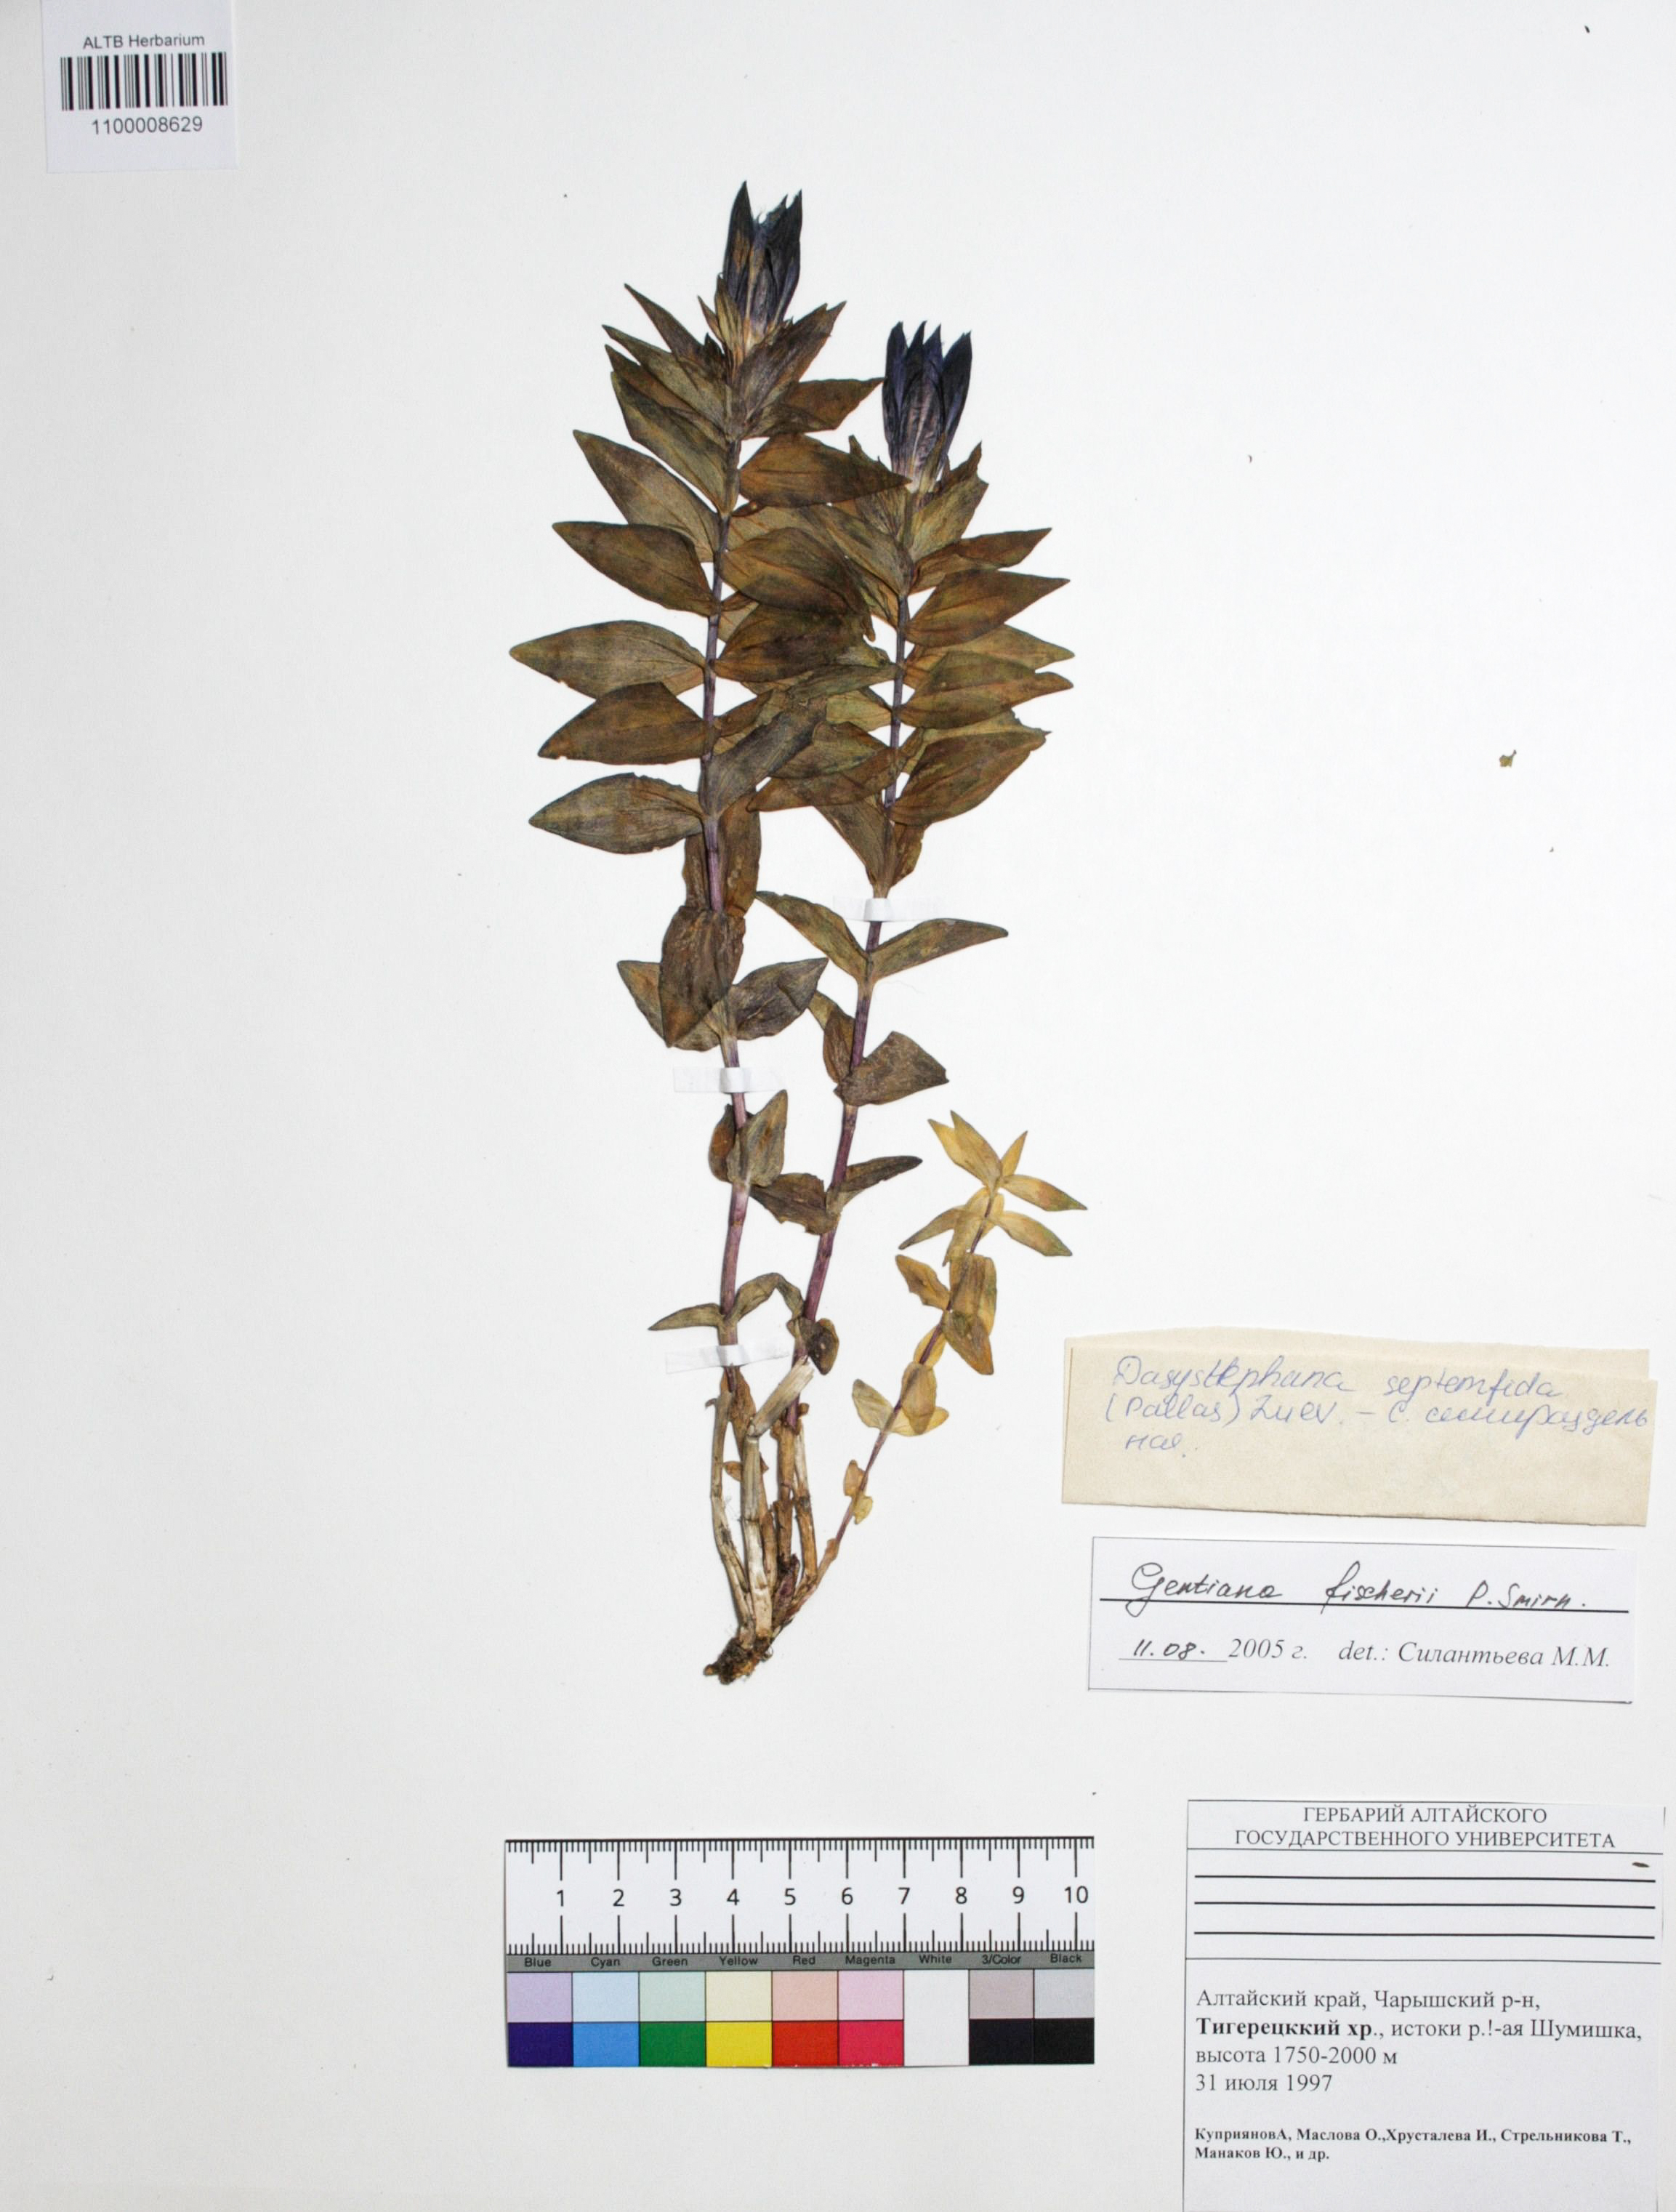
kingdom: Plantae
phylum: Tracheophyta
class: Magnoliopsida
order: Gentianales
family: Gentianaceae
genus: Gentiana
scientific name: Gentiana dschungarica
